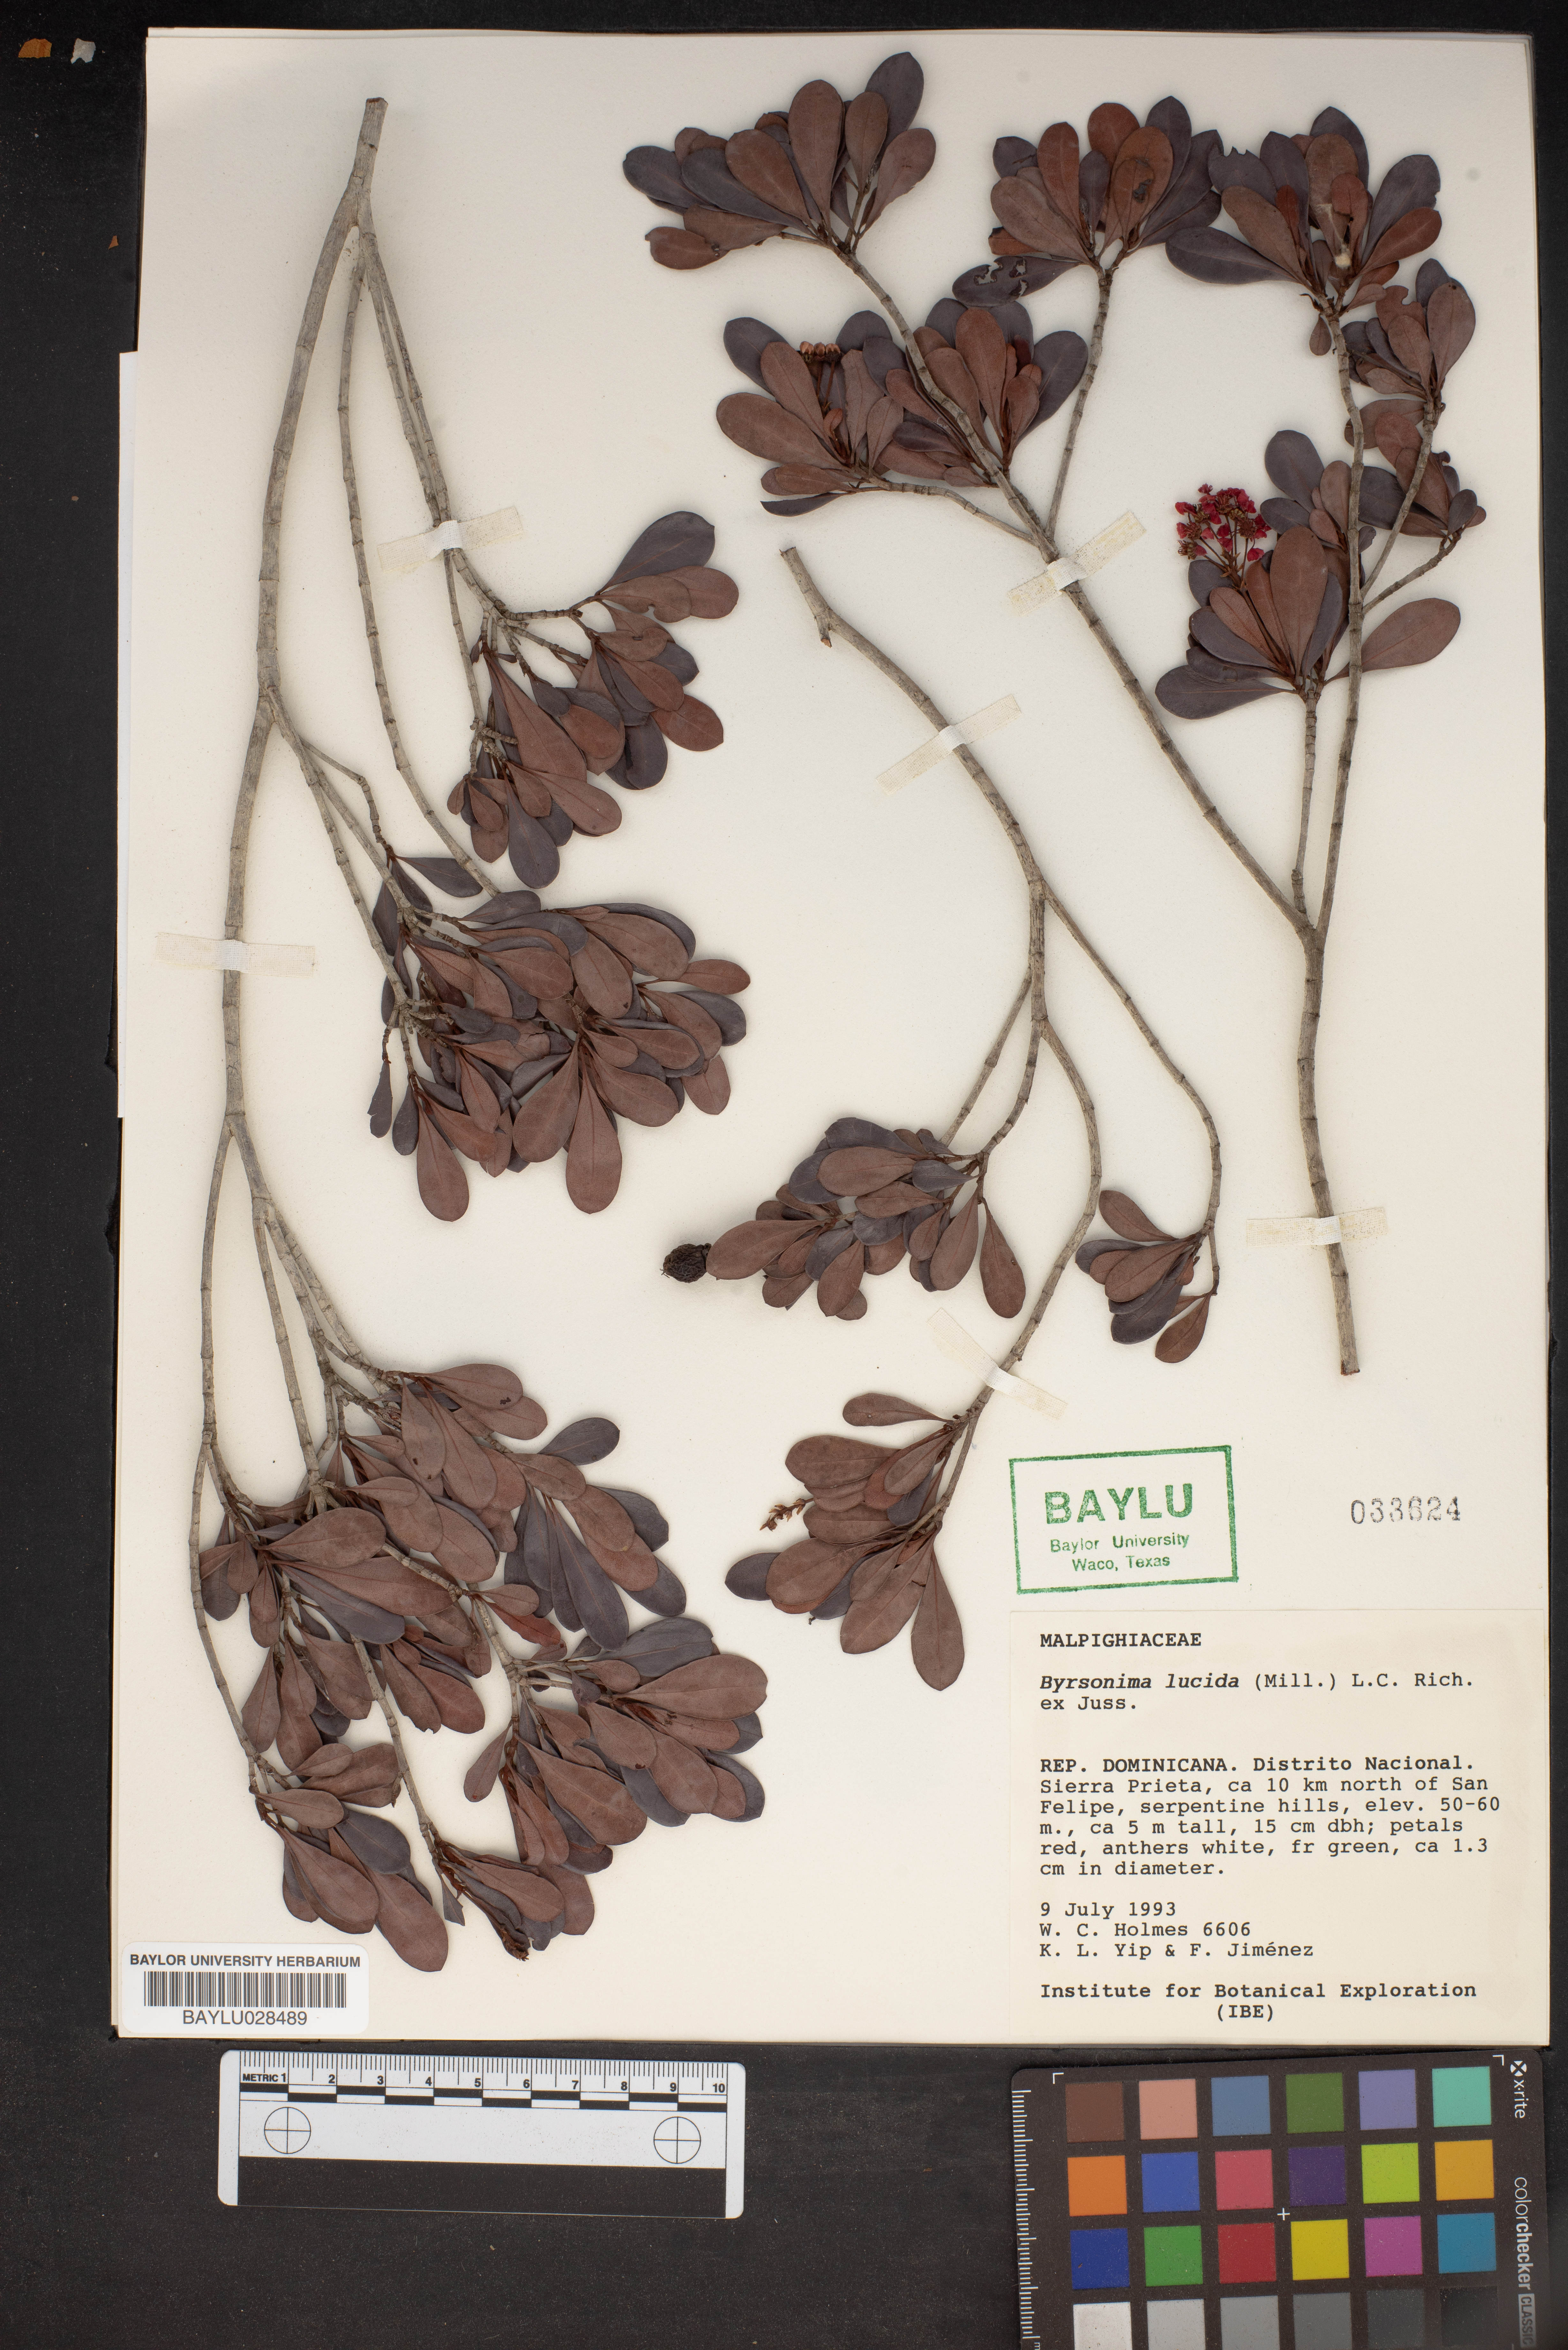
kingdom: Plantae
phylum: Tracheophyta
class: Magnoliopsida
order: Malpighiales
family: Malpighiaceae
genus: Byrsonima
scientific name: Byrsonima lucida
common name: Clam-cherry
